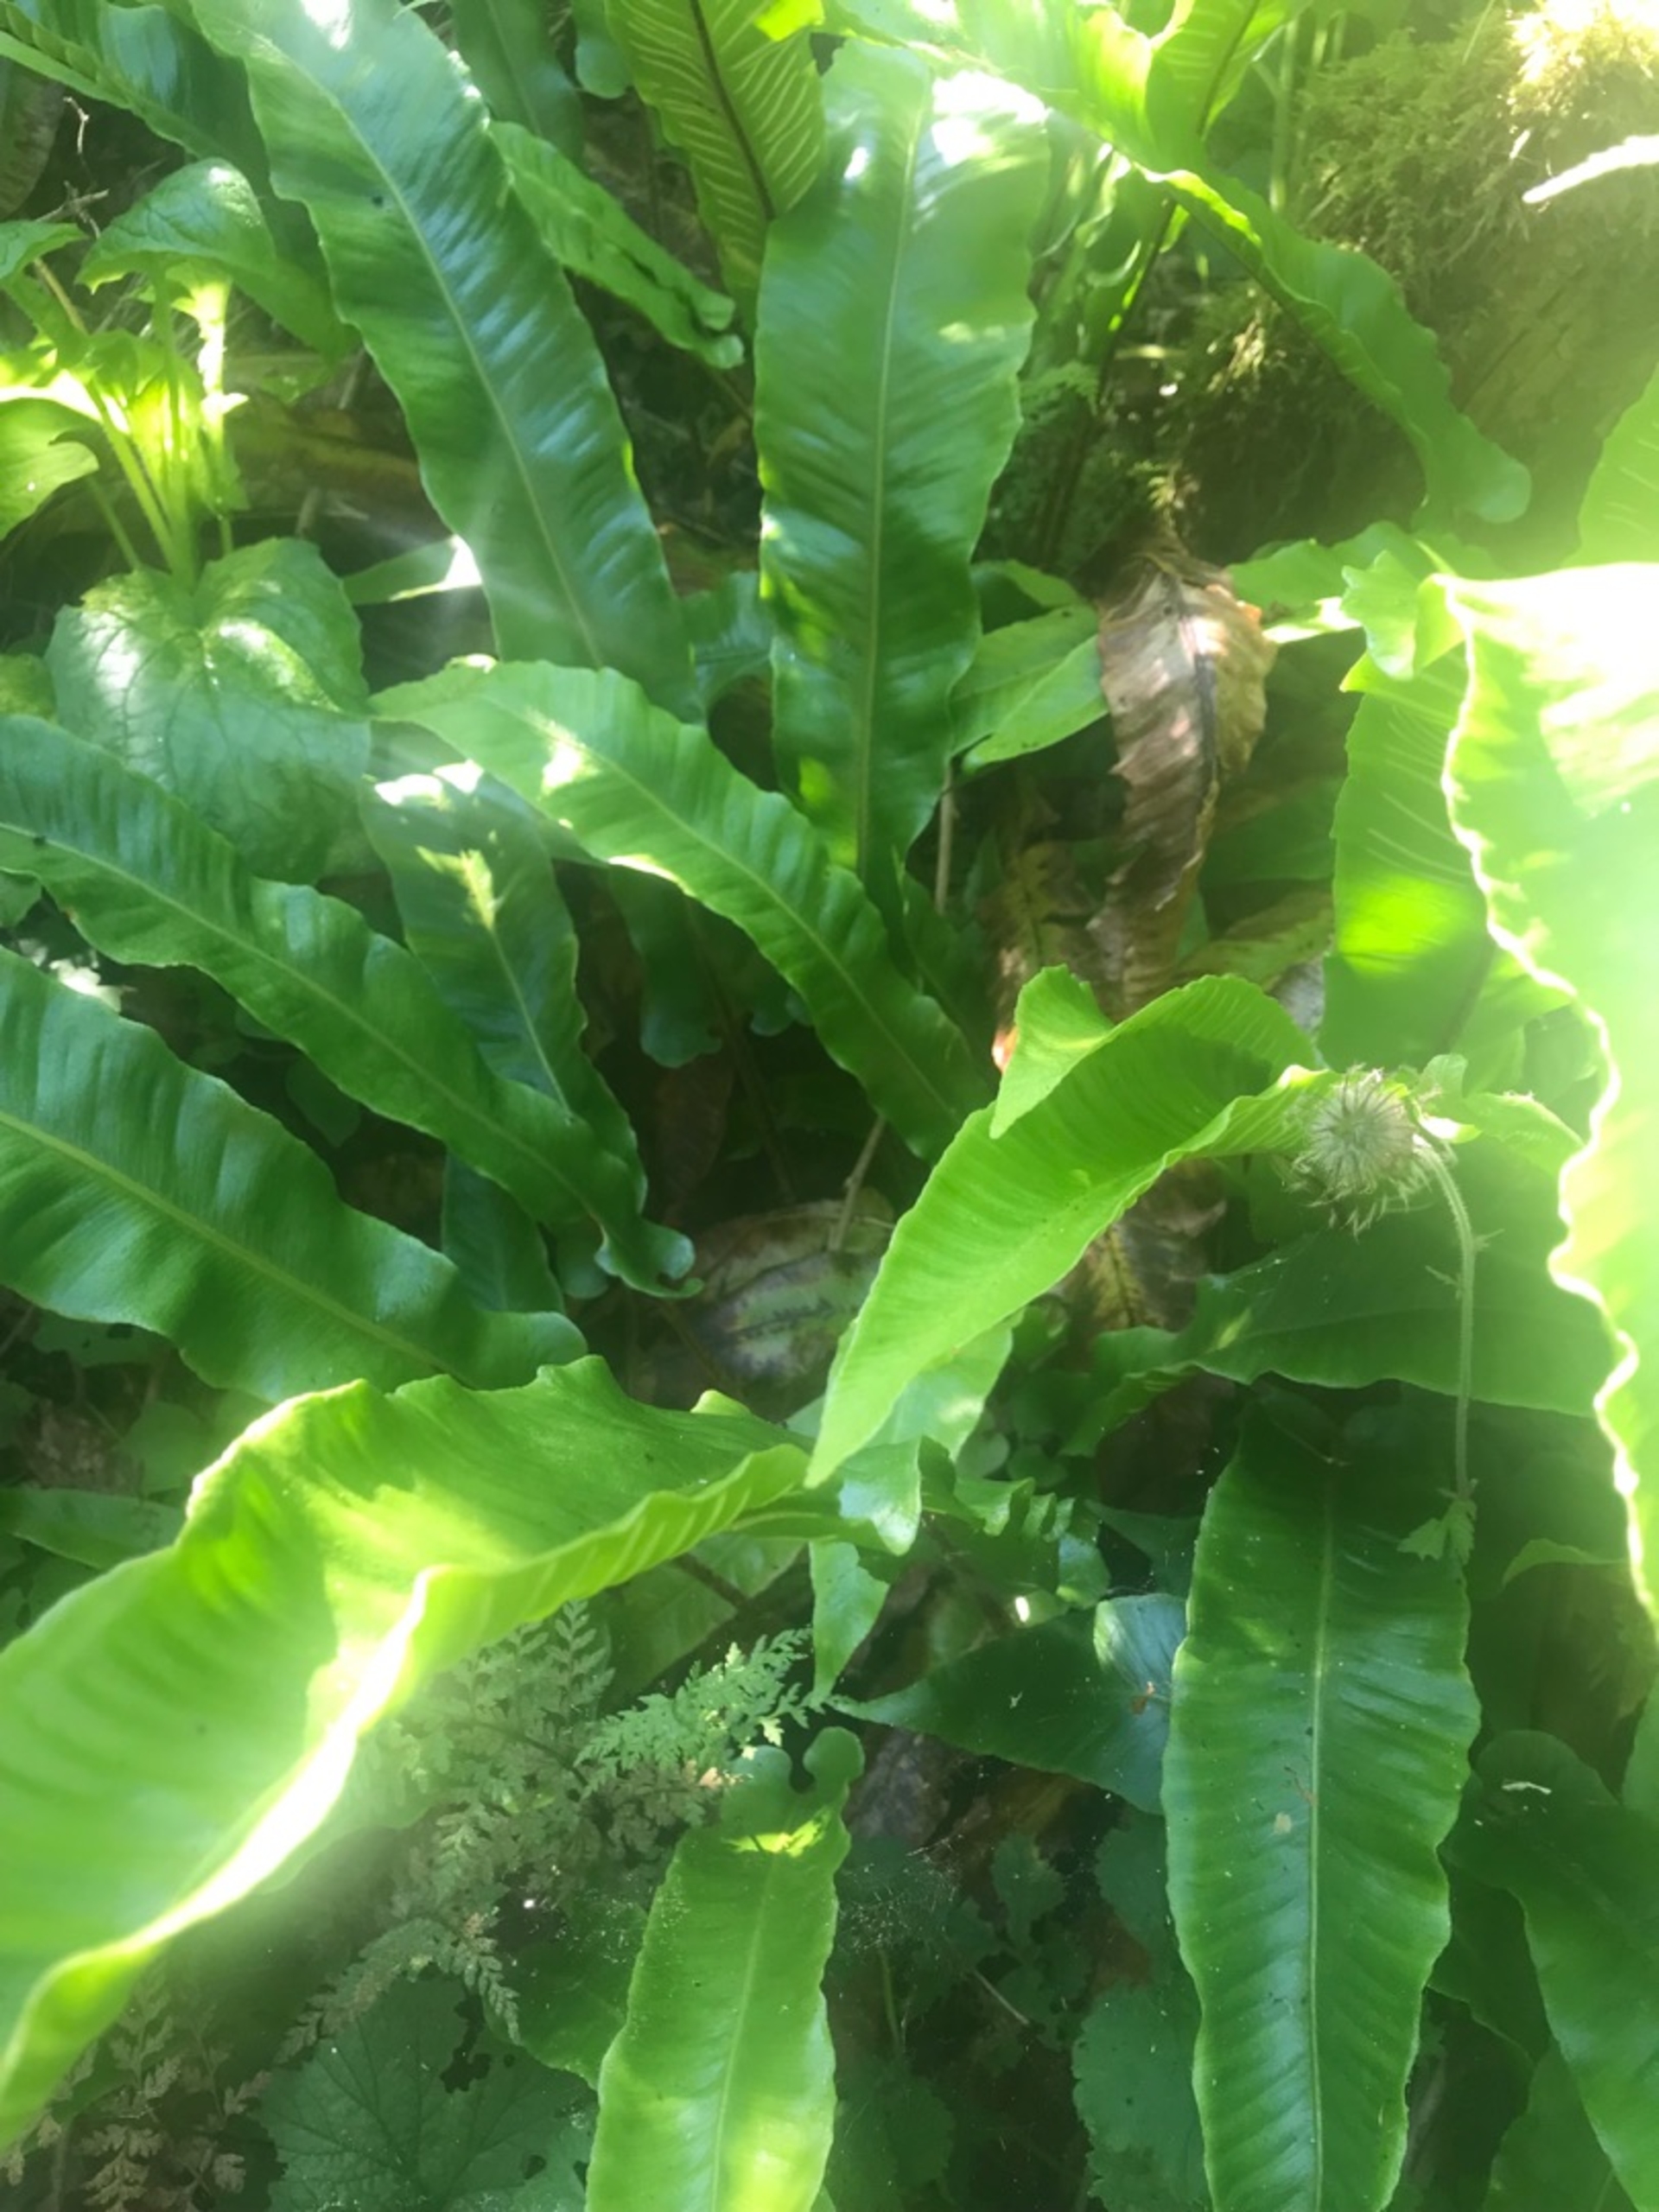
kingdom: Plantae
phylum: Tracheophyta
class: Polypodiopsida
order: Polypodiales
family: Aspleniaceae
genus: Asplenium
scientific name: Asplenium scolopendrium
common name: Hjortetunge
